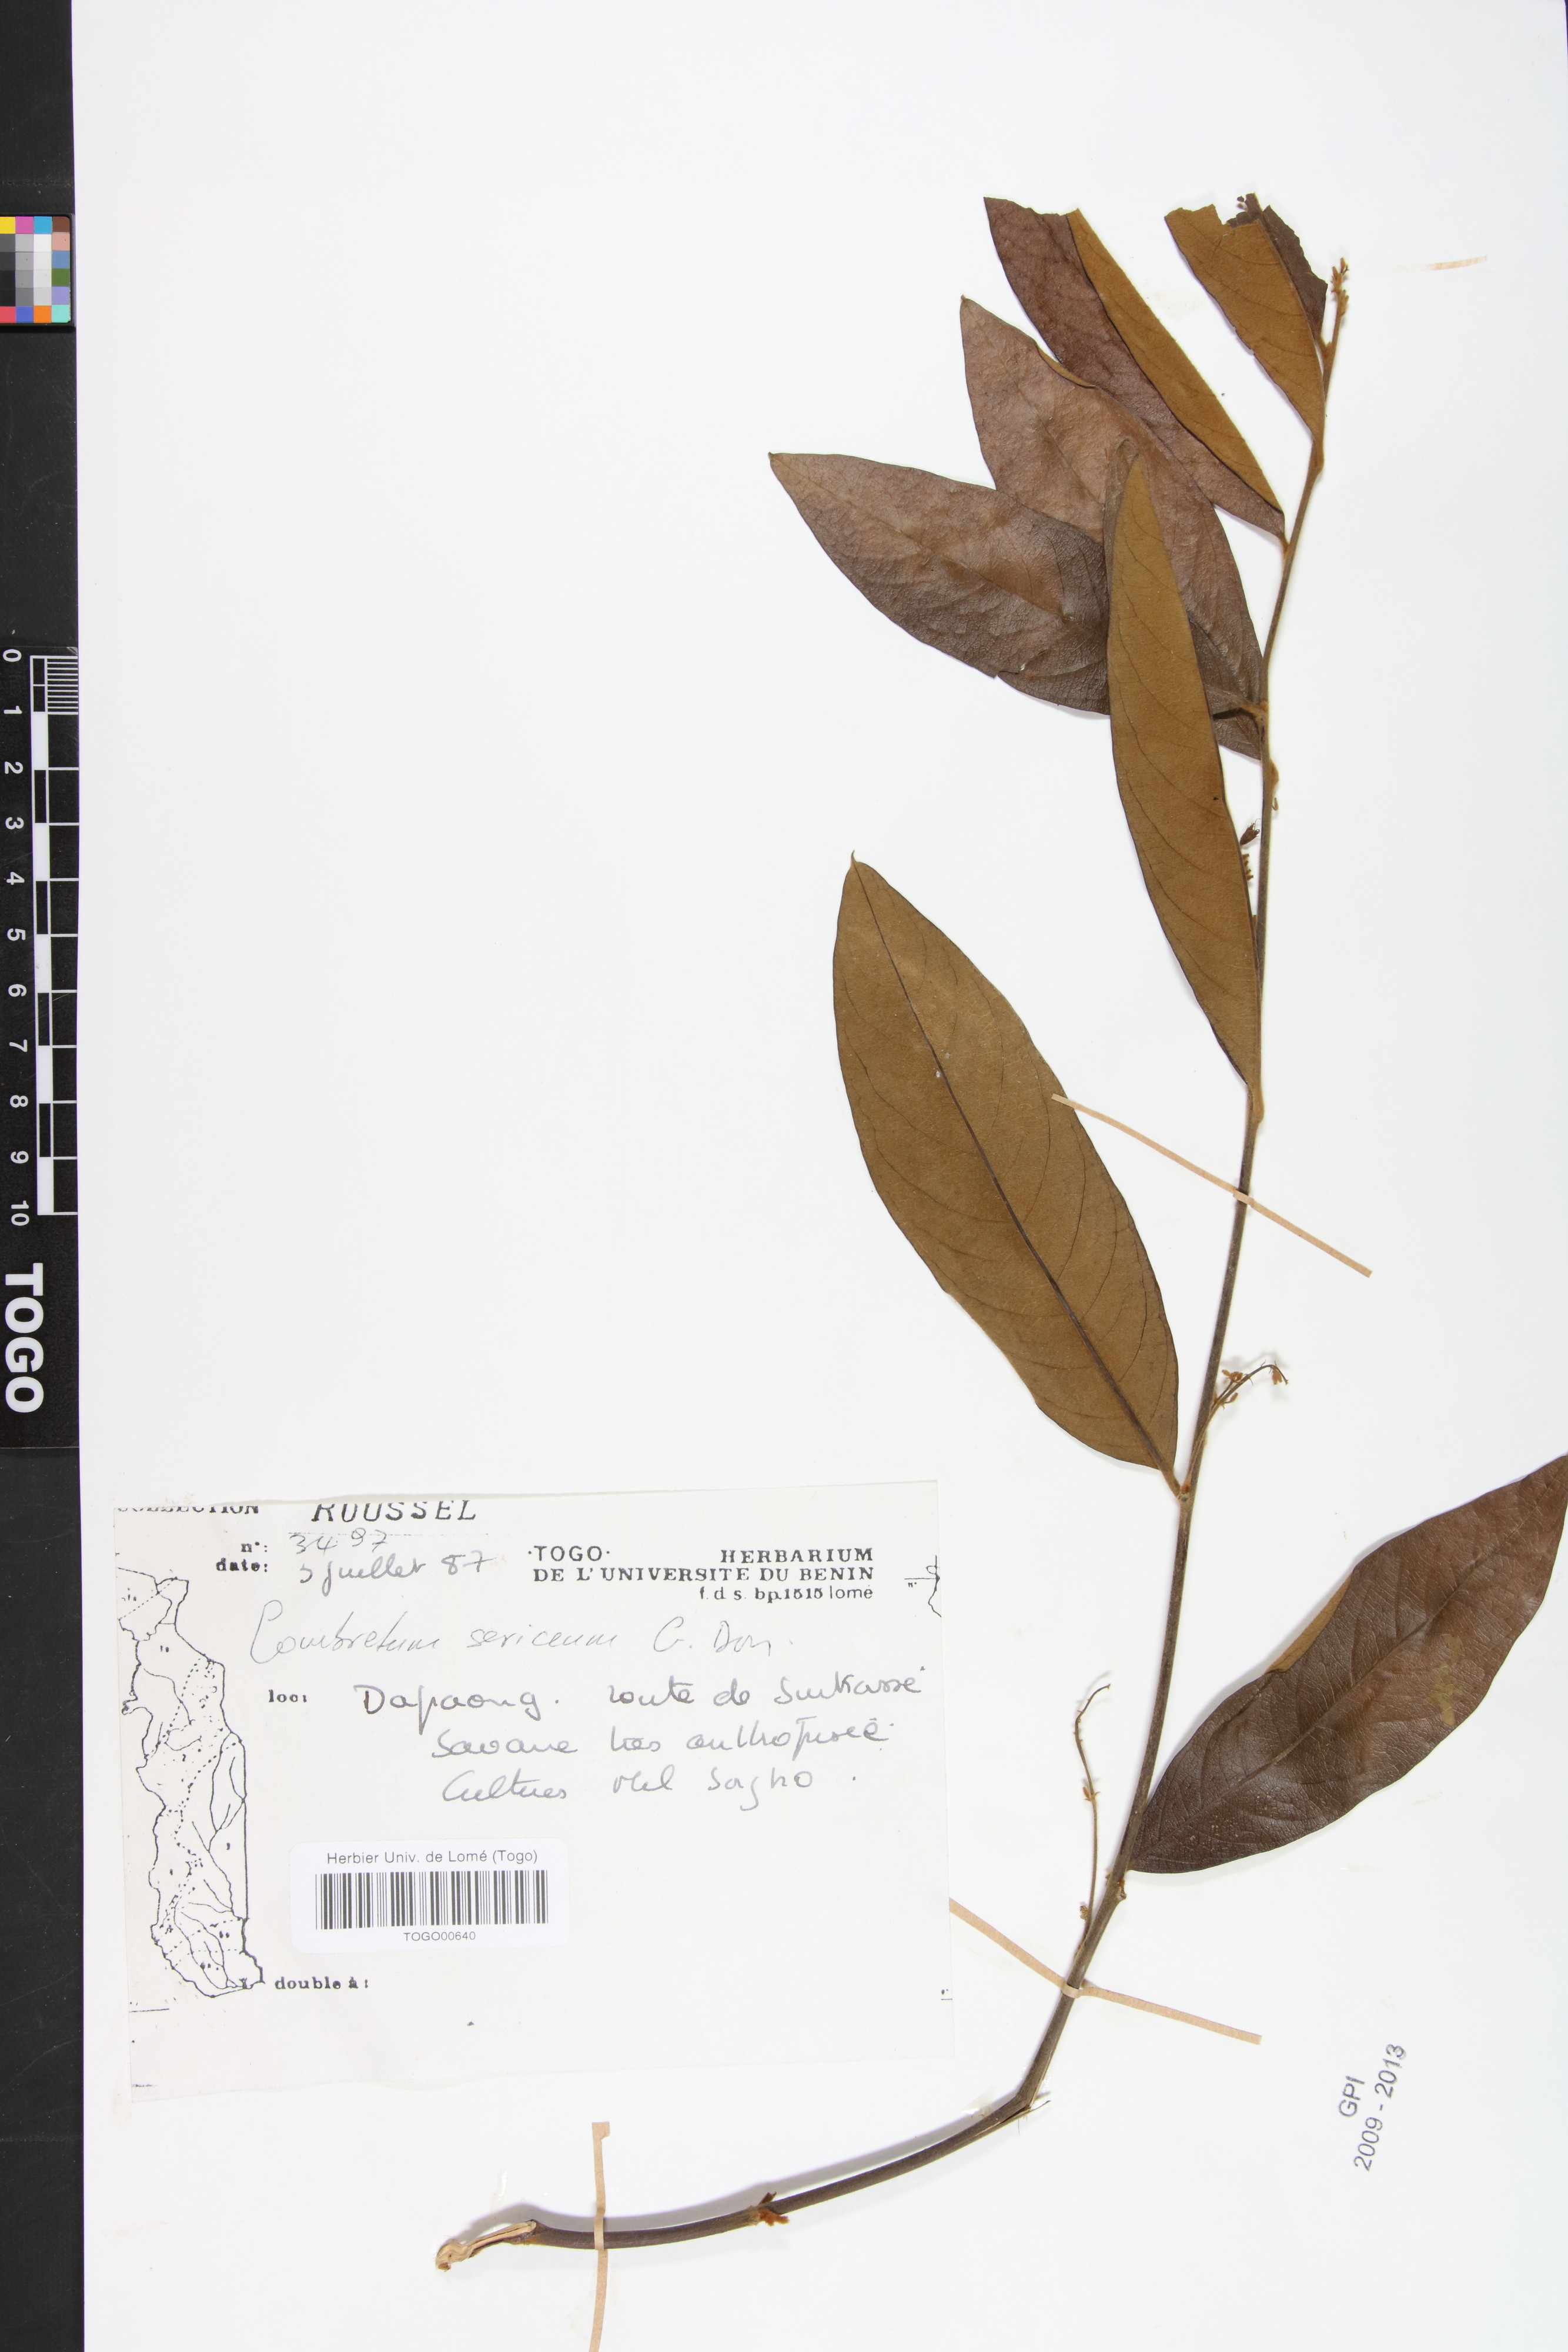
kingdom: Plantae
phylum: Tracheophyta
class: Magnoliopsida
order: Myrtales
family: Combretaceae
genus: Combretum
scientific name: Combretum sericeum
